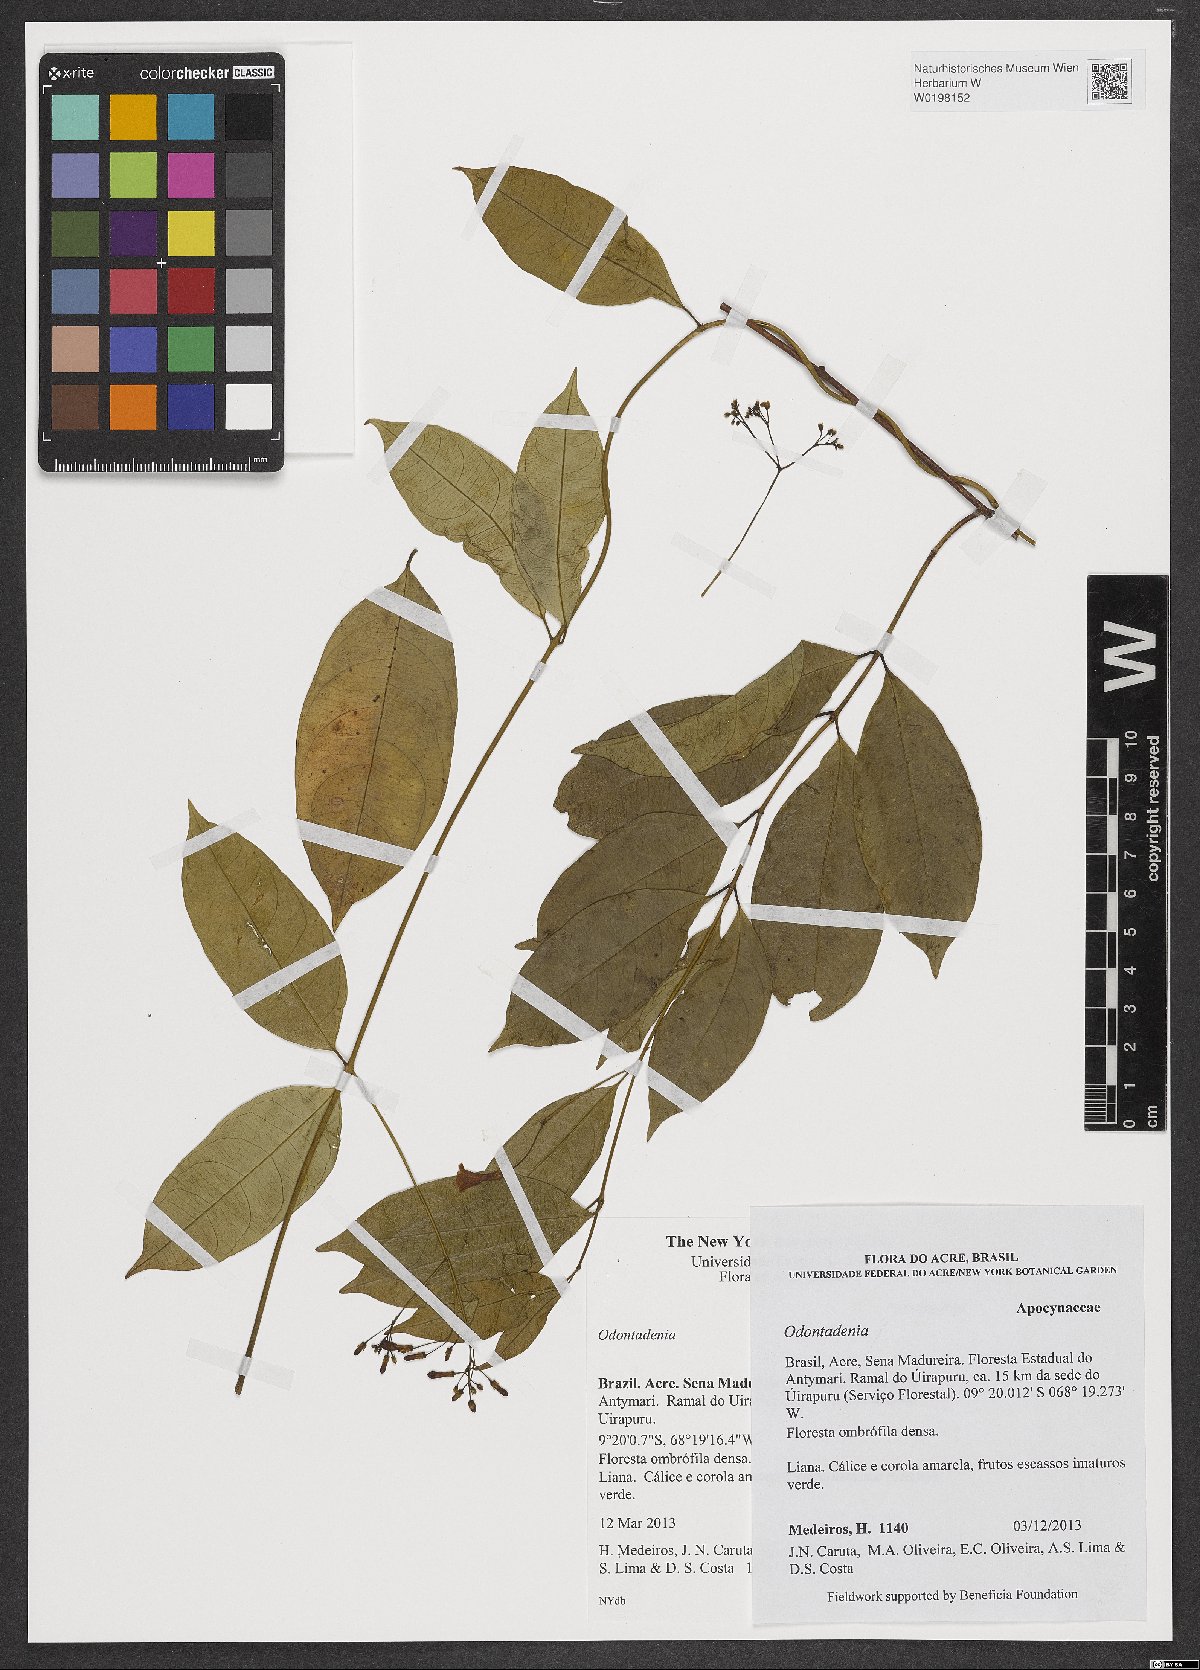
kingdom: Plantae
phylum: Tracheophyta
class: Magnoliopsida
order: Gentianales
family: Apocynaceae
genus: Odontadenia
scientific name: Odontadenia
